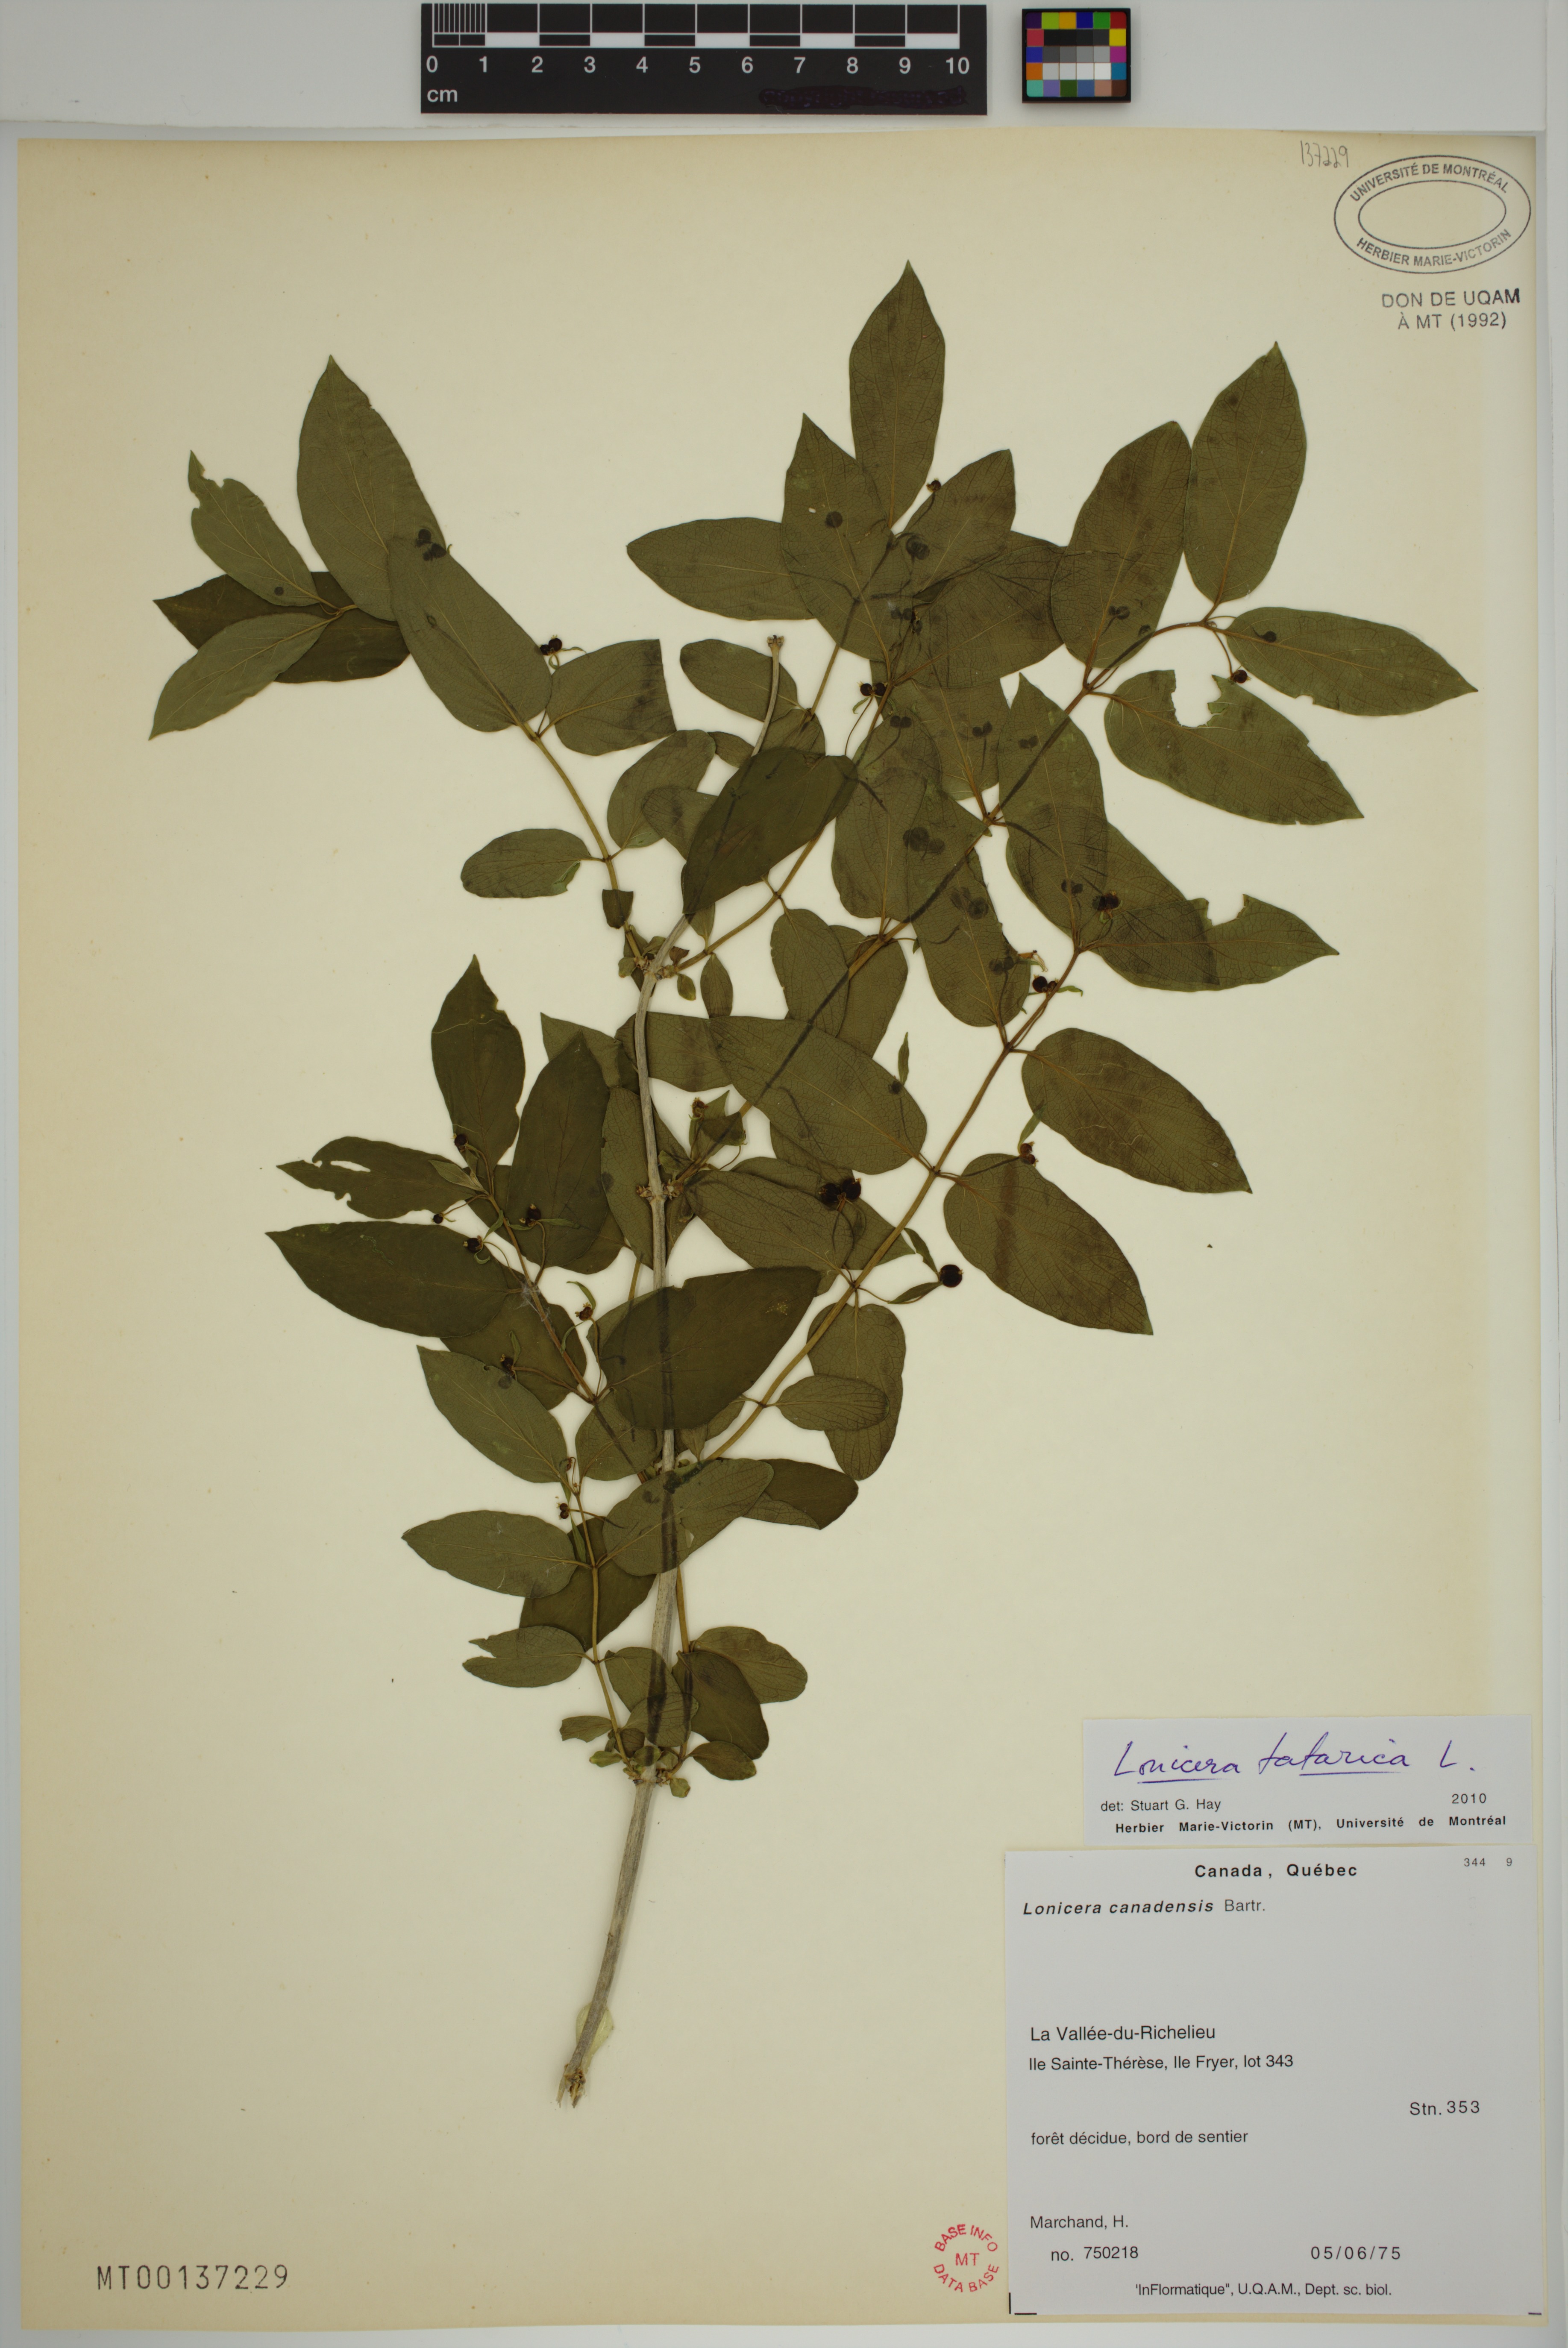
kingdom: Plantae
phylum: Tracheophyta
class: Magnoliopsida
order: Dipsacales
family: Caprifoliaceae
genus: Lonicera
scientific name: Lonicera tatarica
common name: Tatarian honeysuckle
